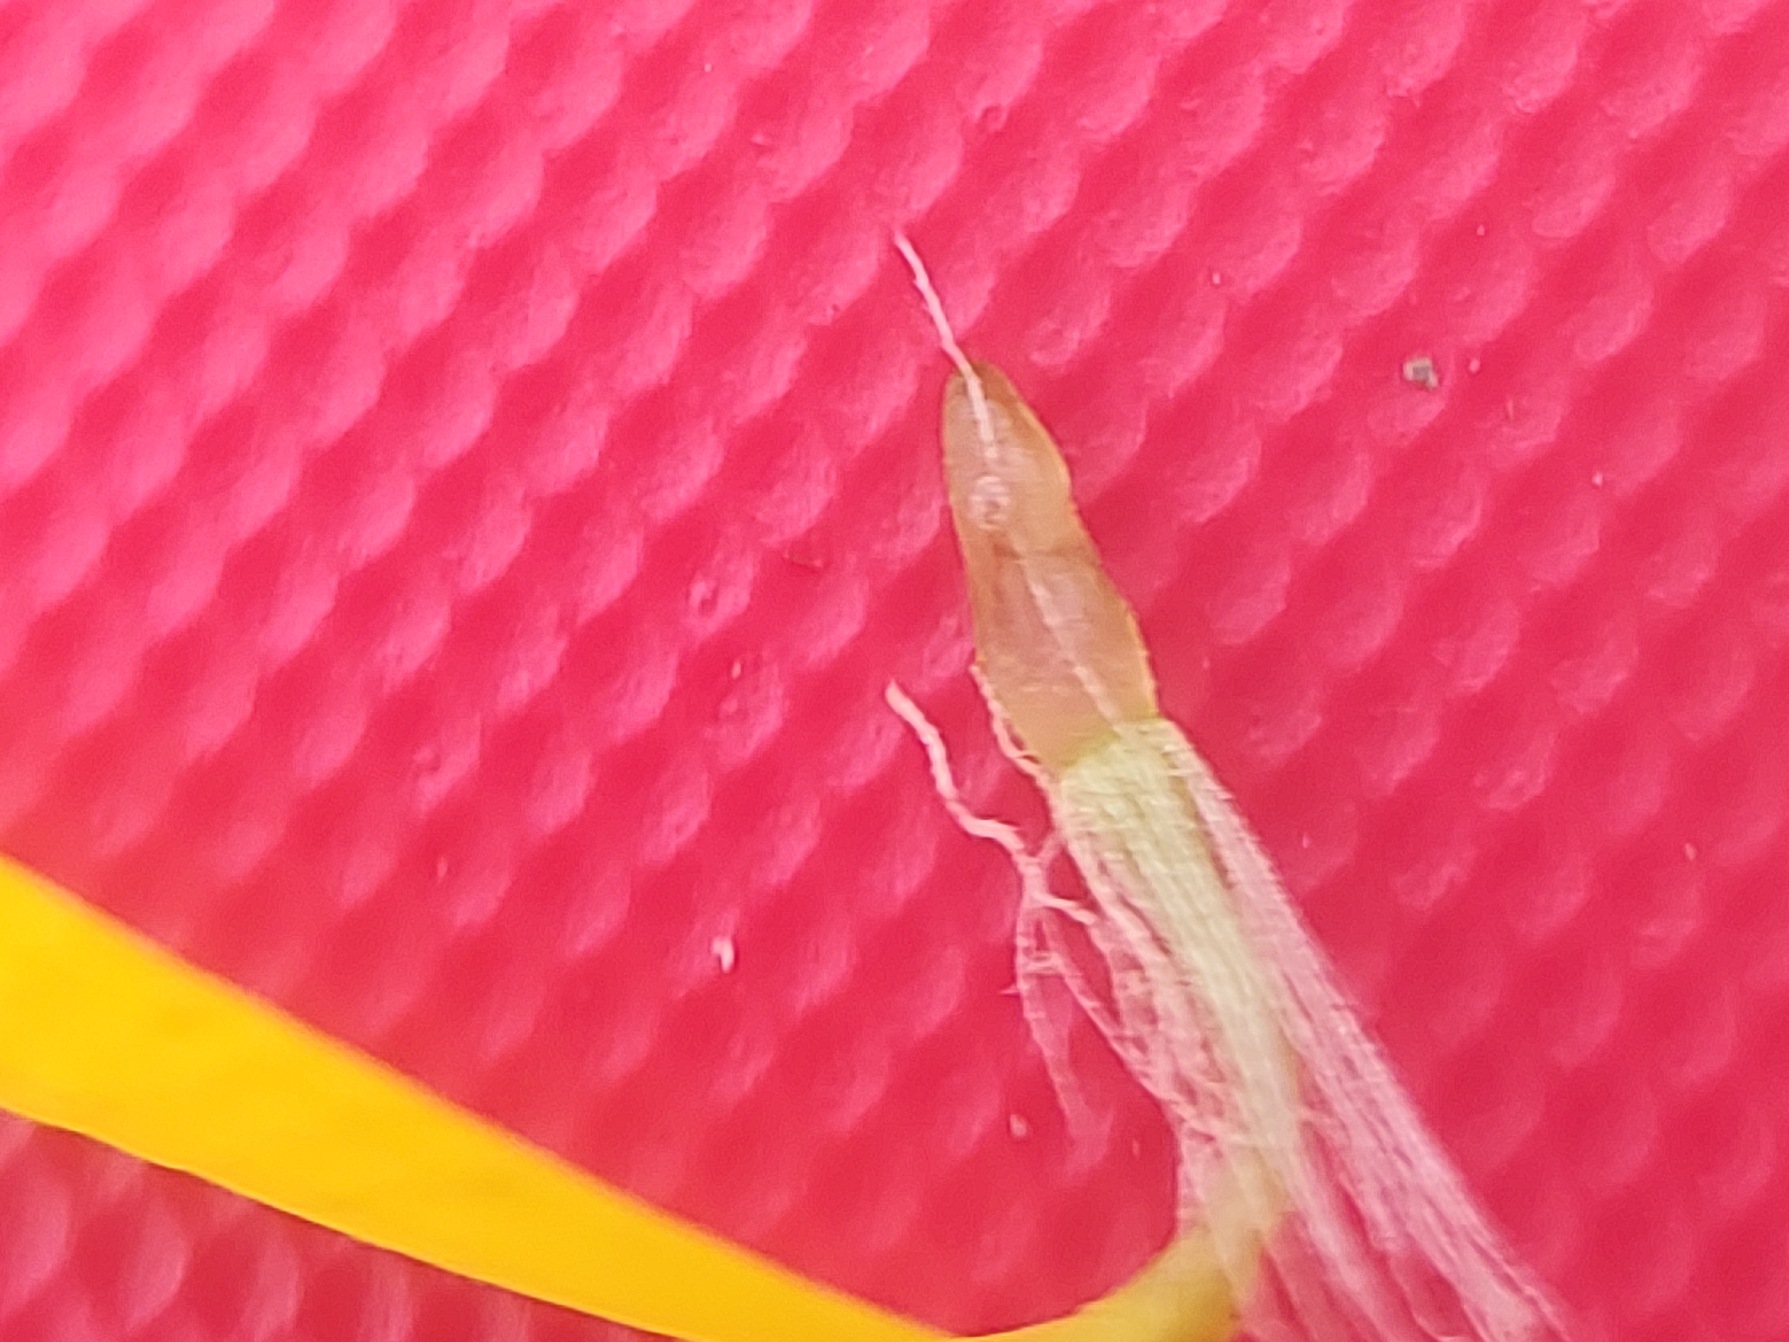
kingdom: Plantae
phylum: Tracheophyta
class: Magnoliopsida
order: Asterales
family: Asteraceae
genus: Jacobaea
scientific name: Jacobaea aquatica
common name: Vand-brandbæger
